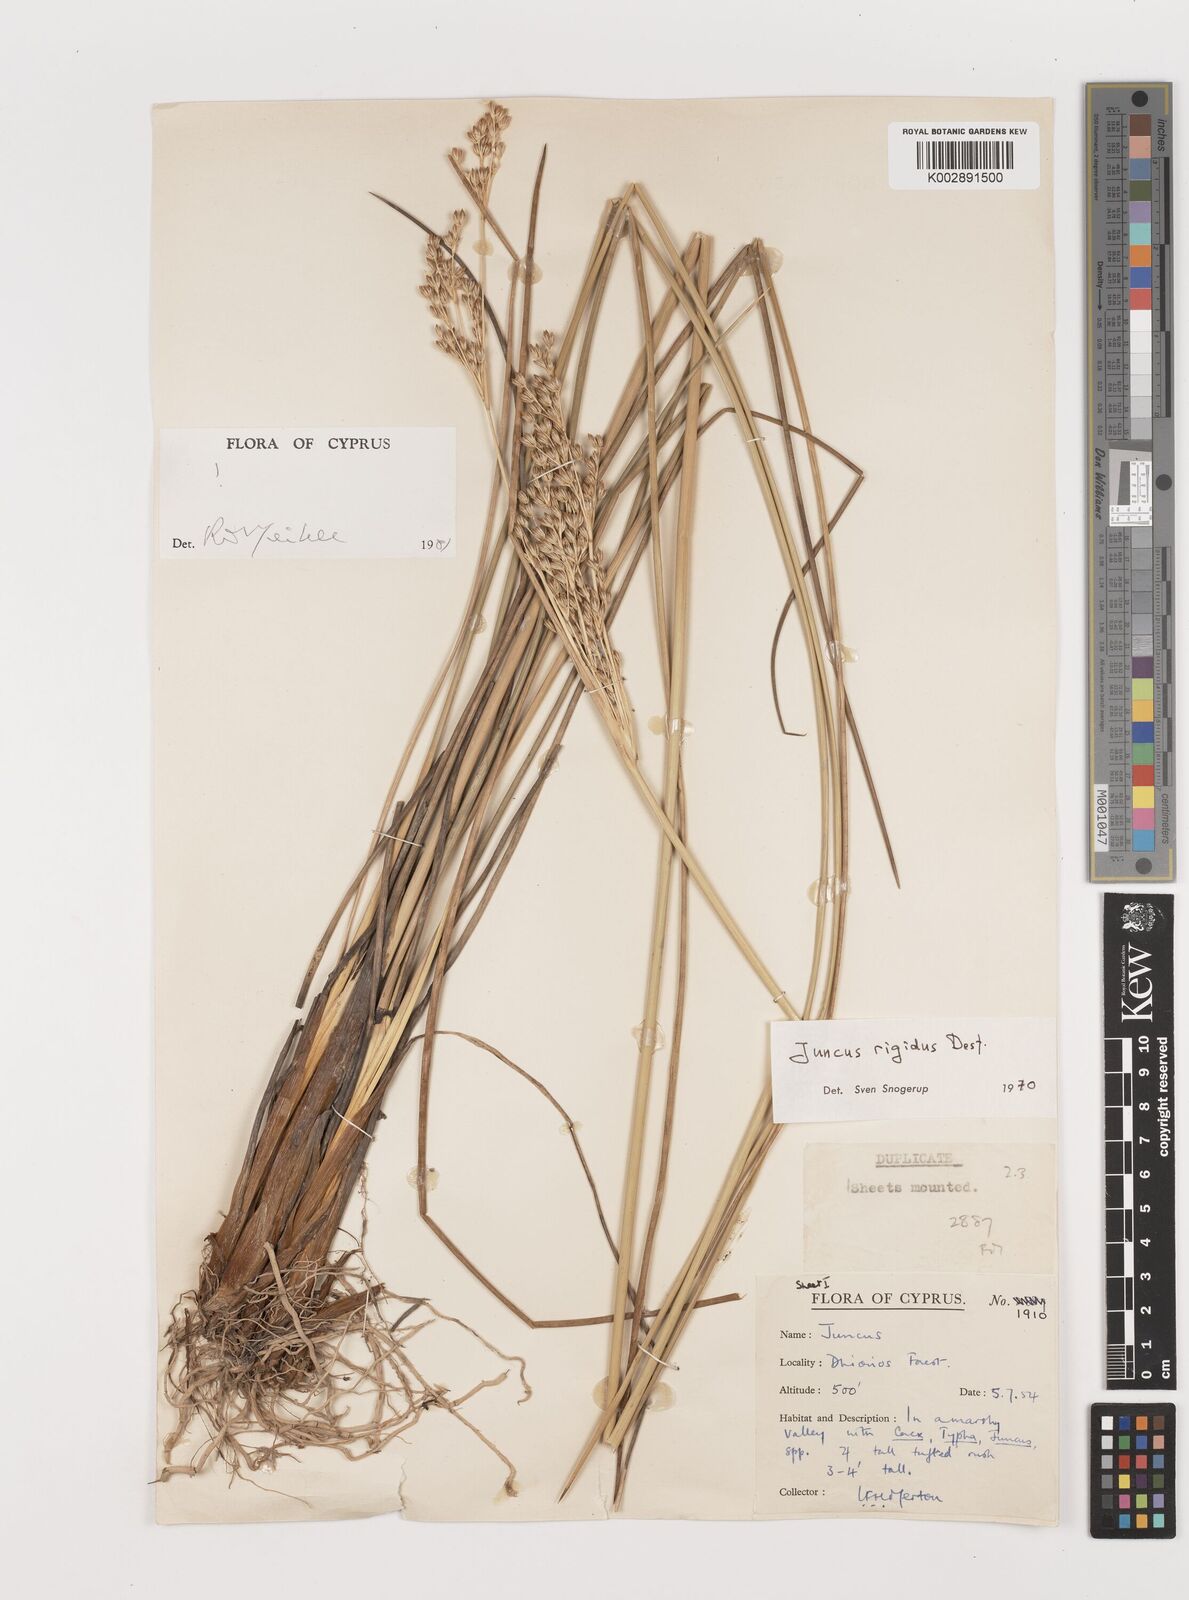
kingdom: Plantae
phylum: Tracheophyta
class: Liliopsida
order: Poales
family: Juncaceae
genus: Juncus
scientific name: Juncus rigidus
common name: Hard sea rush
